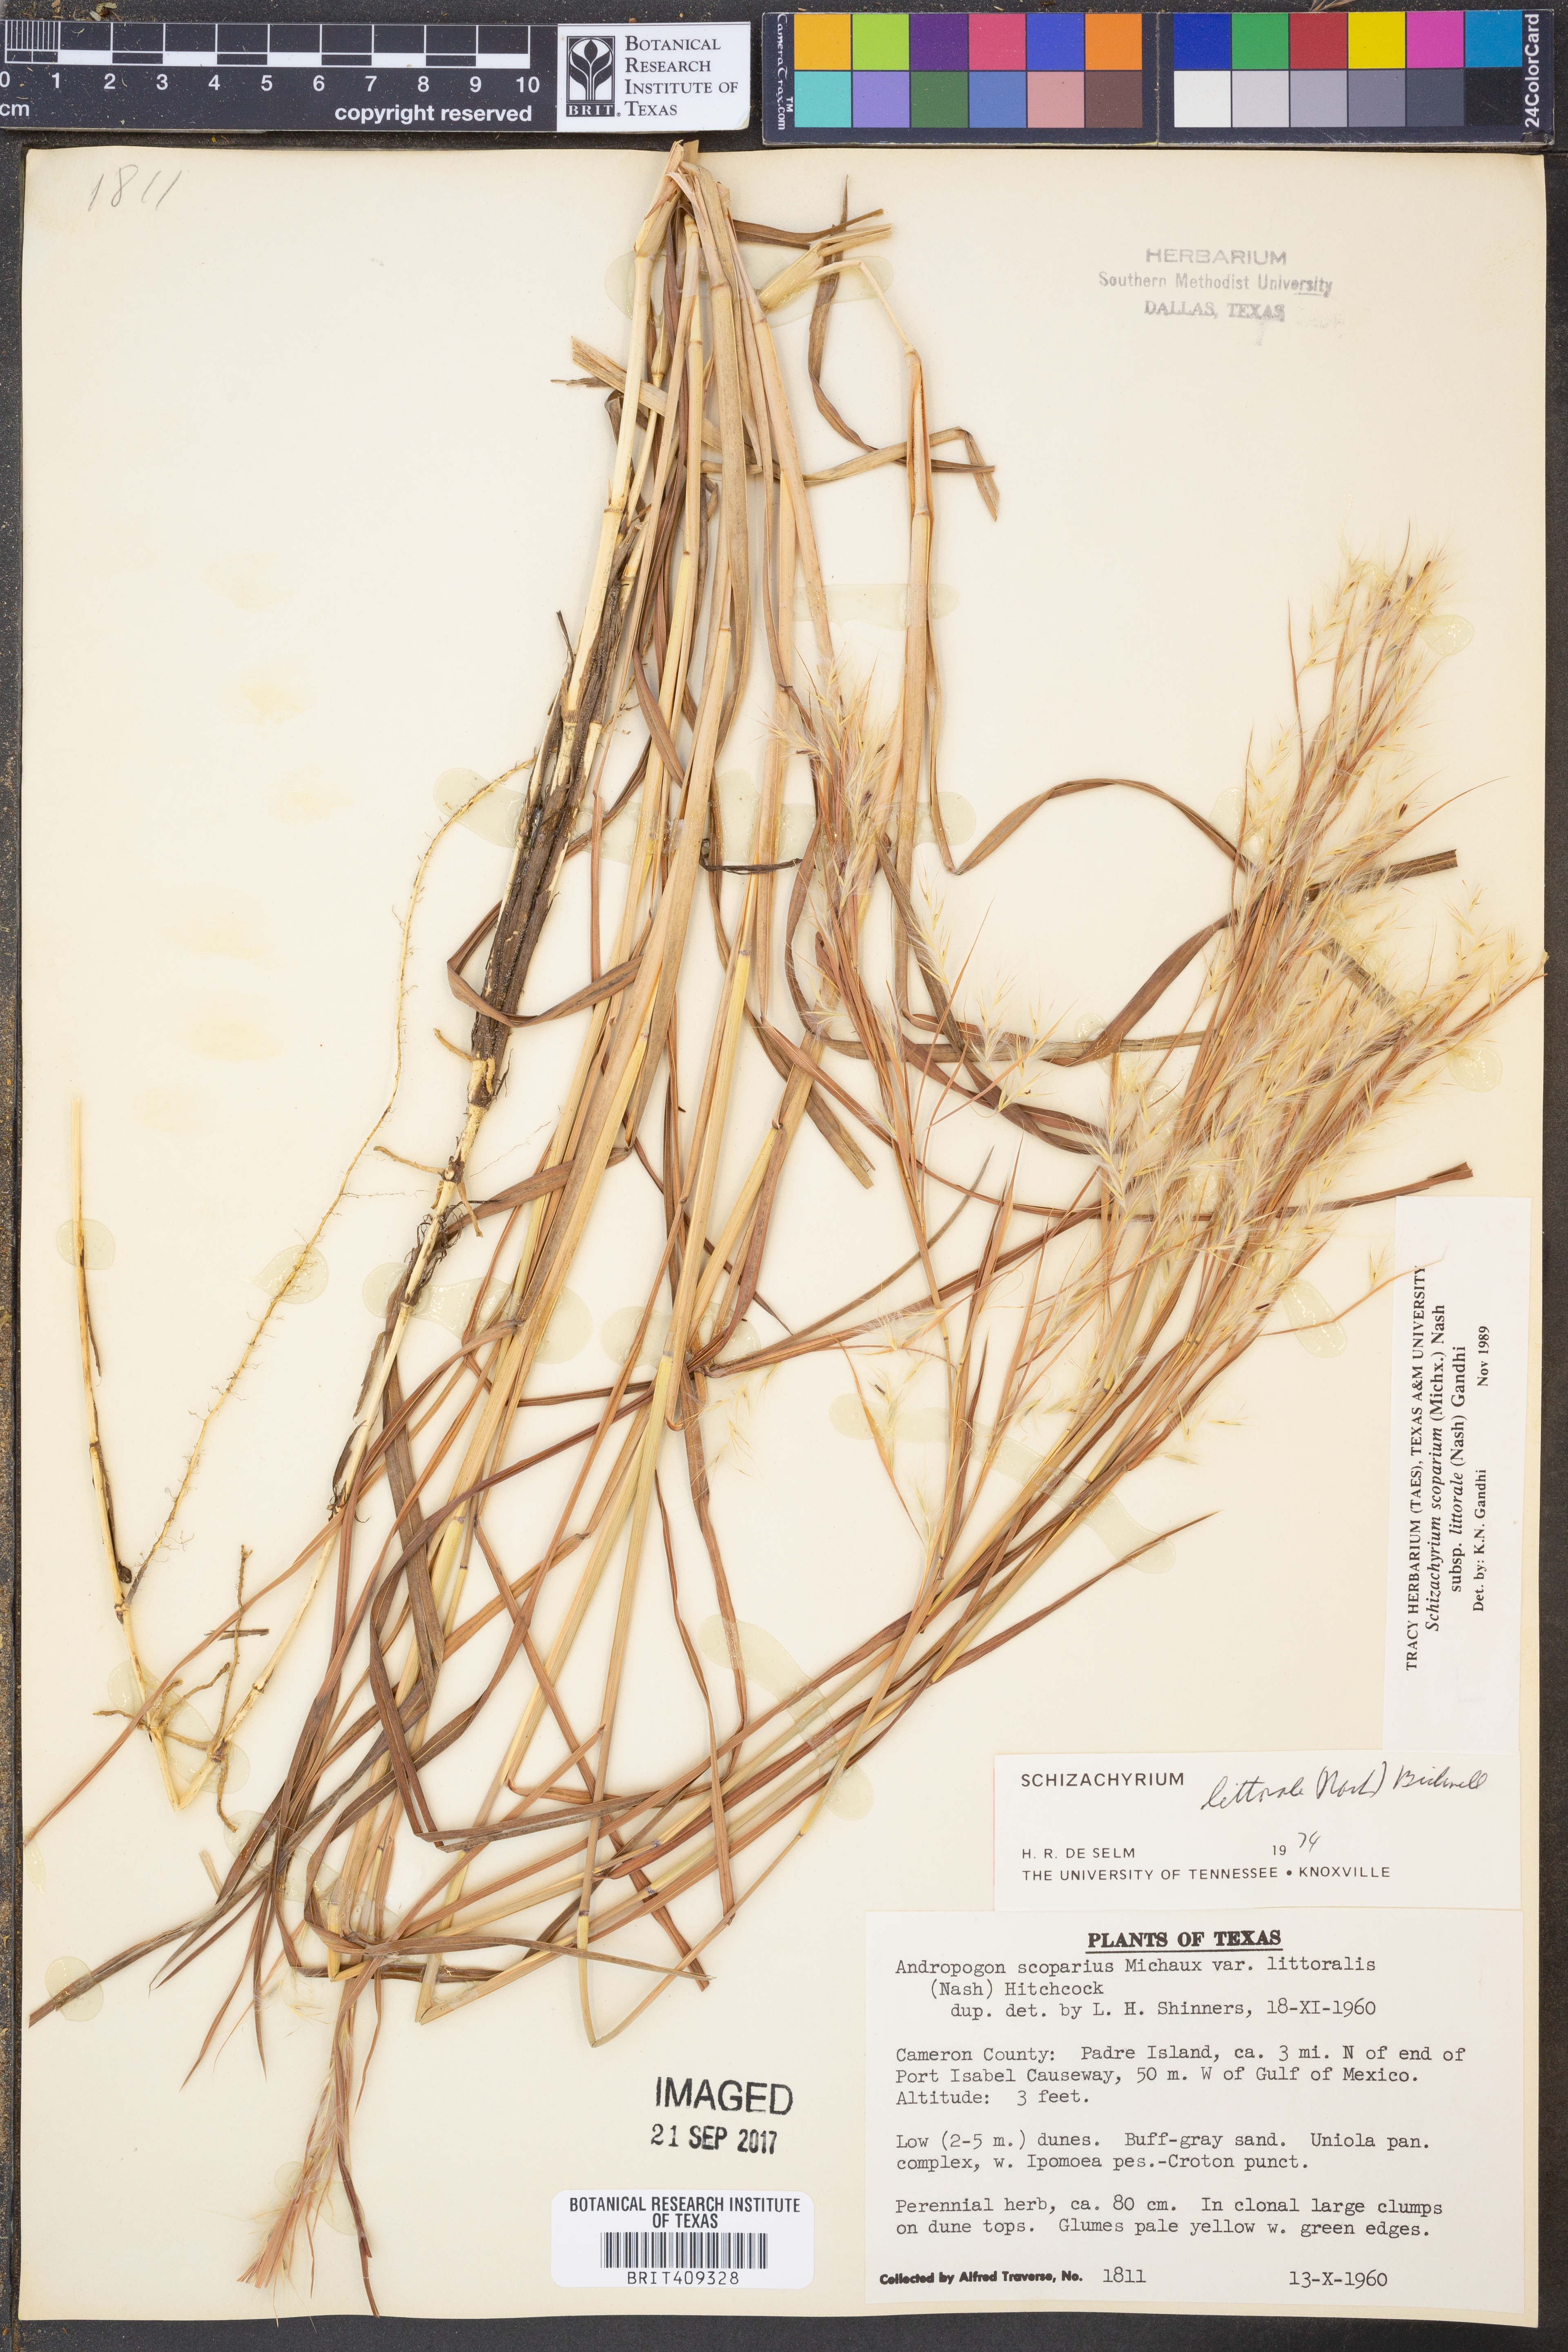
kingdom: Plantae
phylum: Tracheophyta
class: Liliopsida
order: Poales
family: Poaceae
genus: Schizachyrium
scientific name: Schizachyrium scoparium
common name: Little bluestem
